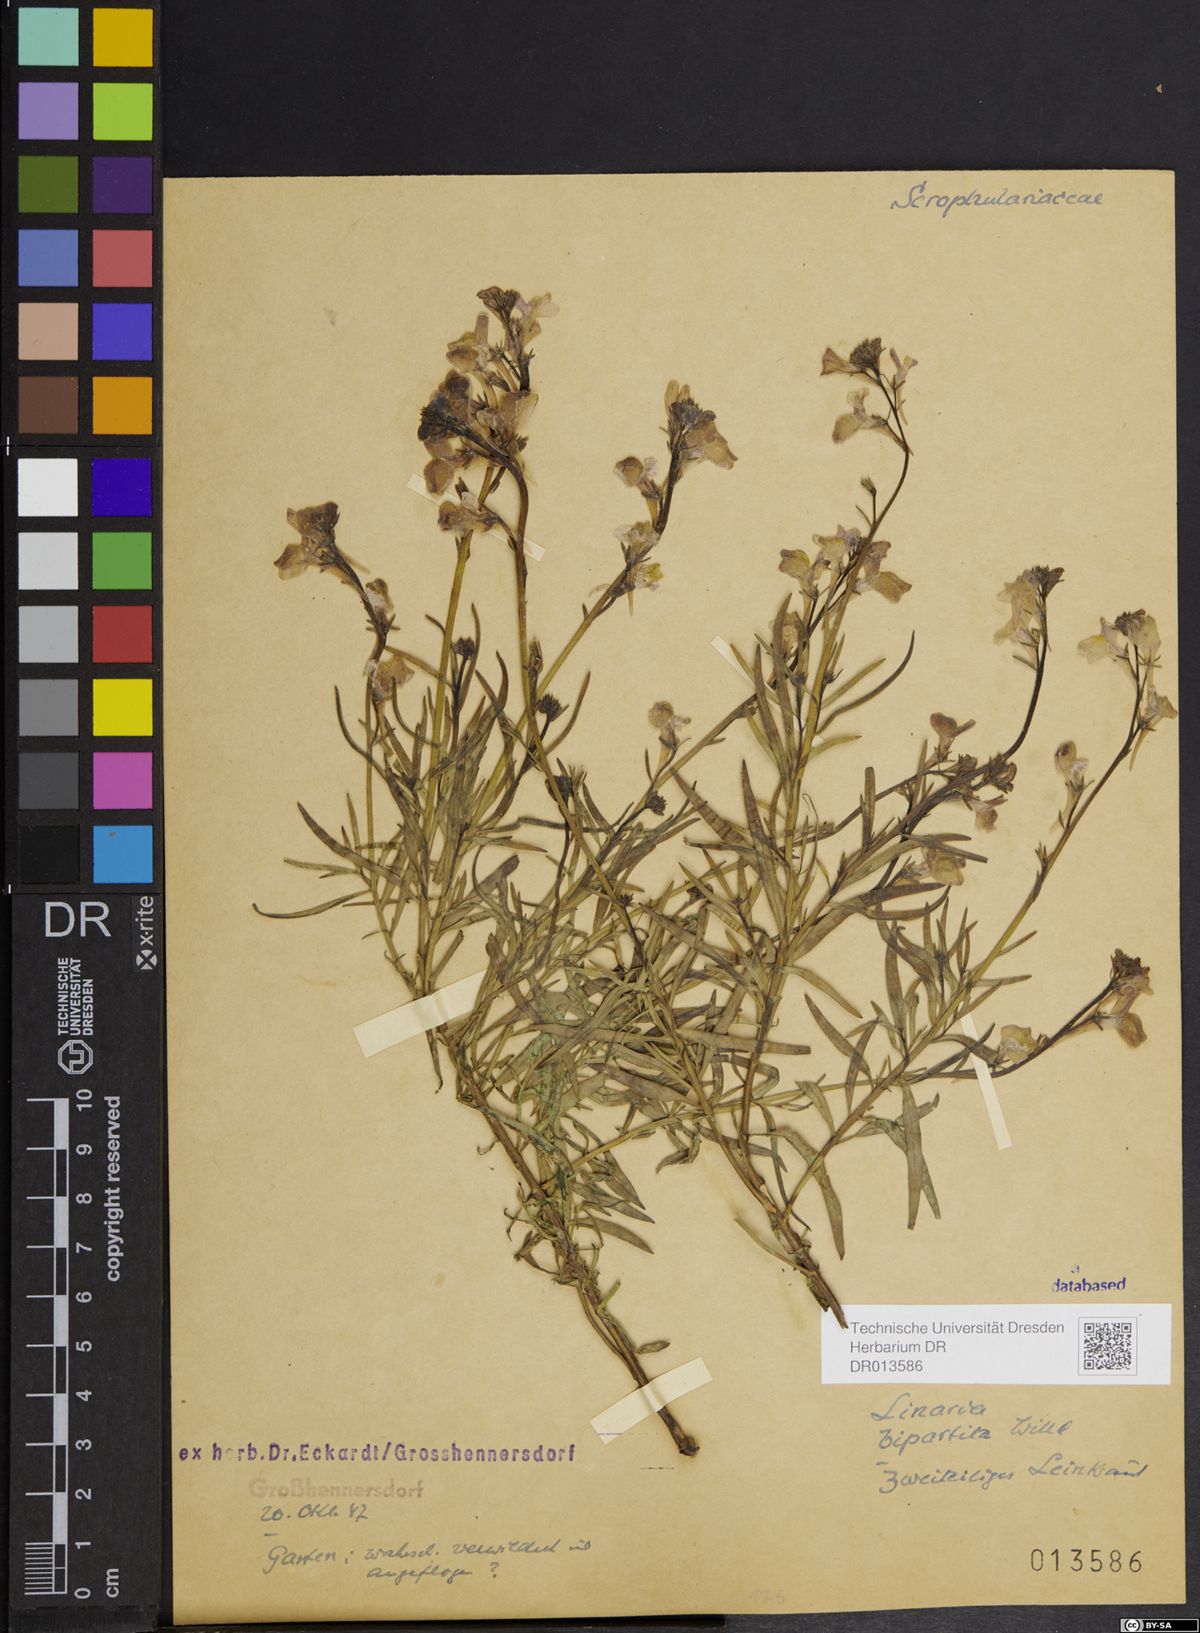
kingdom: Plantae
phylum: Tracheophyta
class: Magnoliopsida
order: Lamiales
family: Plantaginaceae
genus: Linaria
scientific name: Linaria bipartita
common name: Clovenlip toadflax
